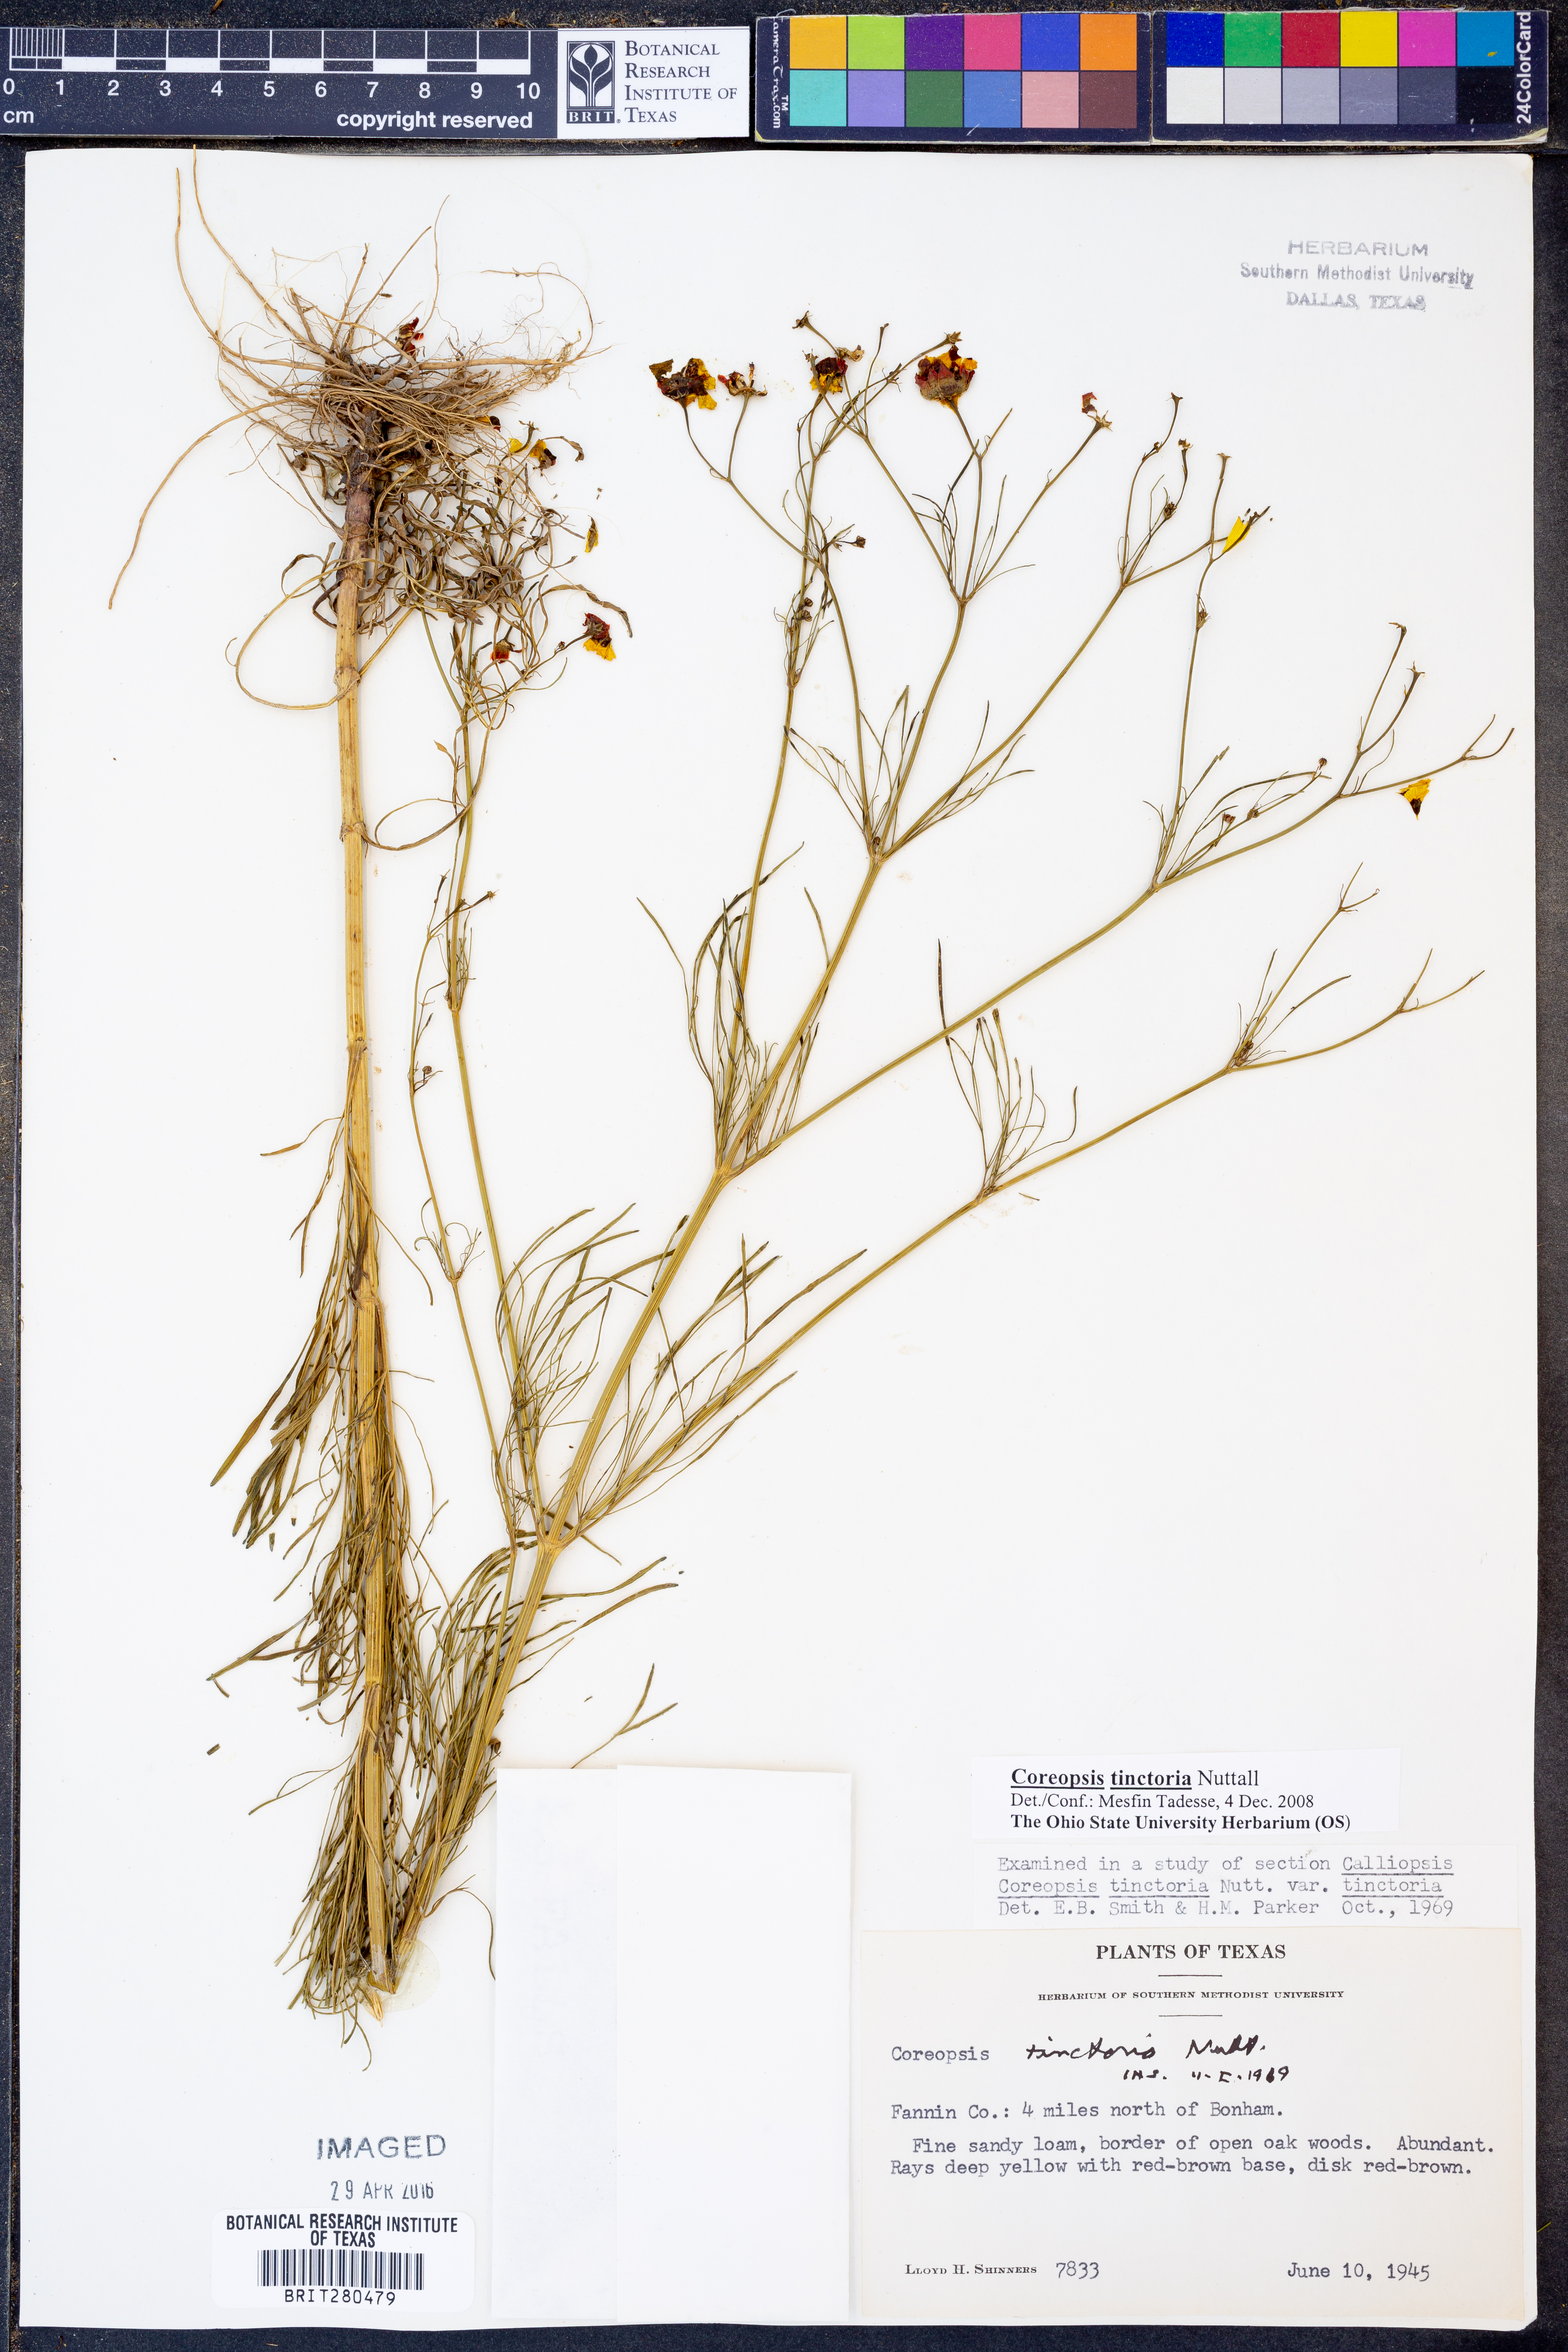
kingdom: Plantae
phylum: Tracheophyta
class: Magnoliopsida
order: Asterales
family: Asteraceae
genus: Coreopsis
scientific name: Coreopsis tinctoria
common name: Garden tickseed
